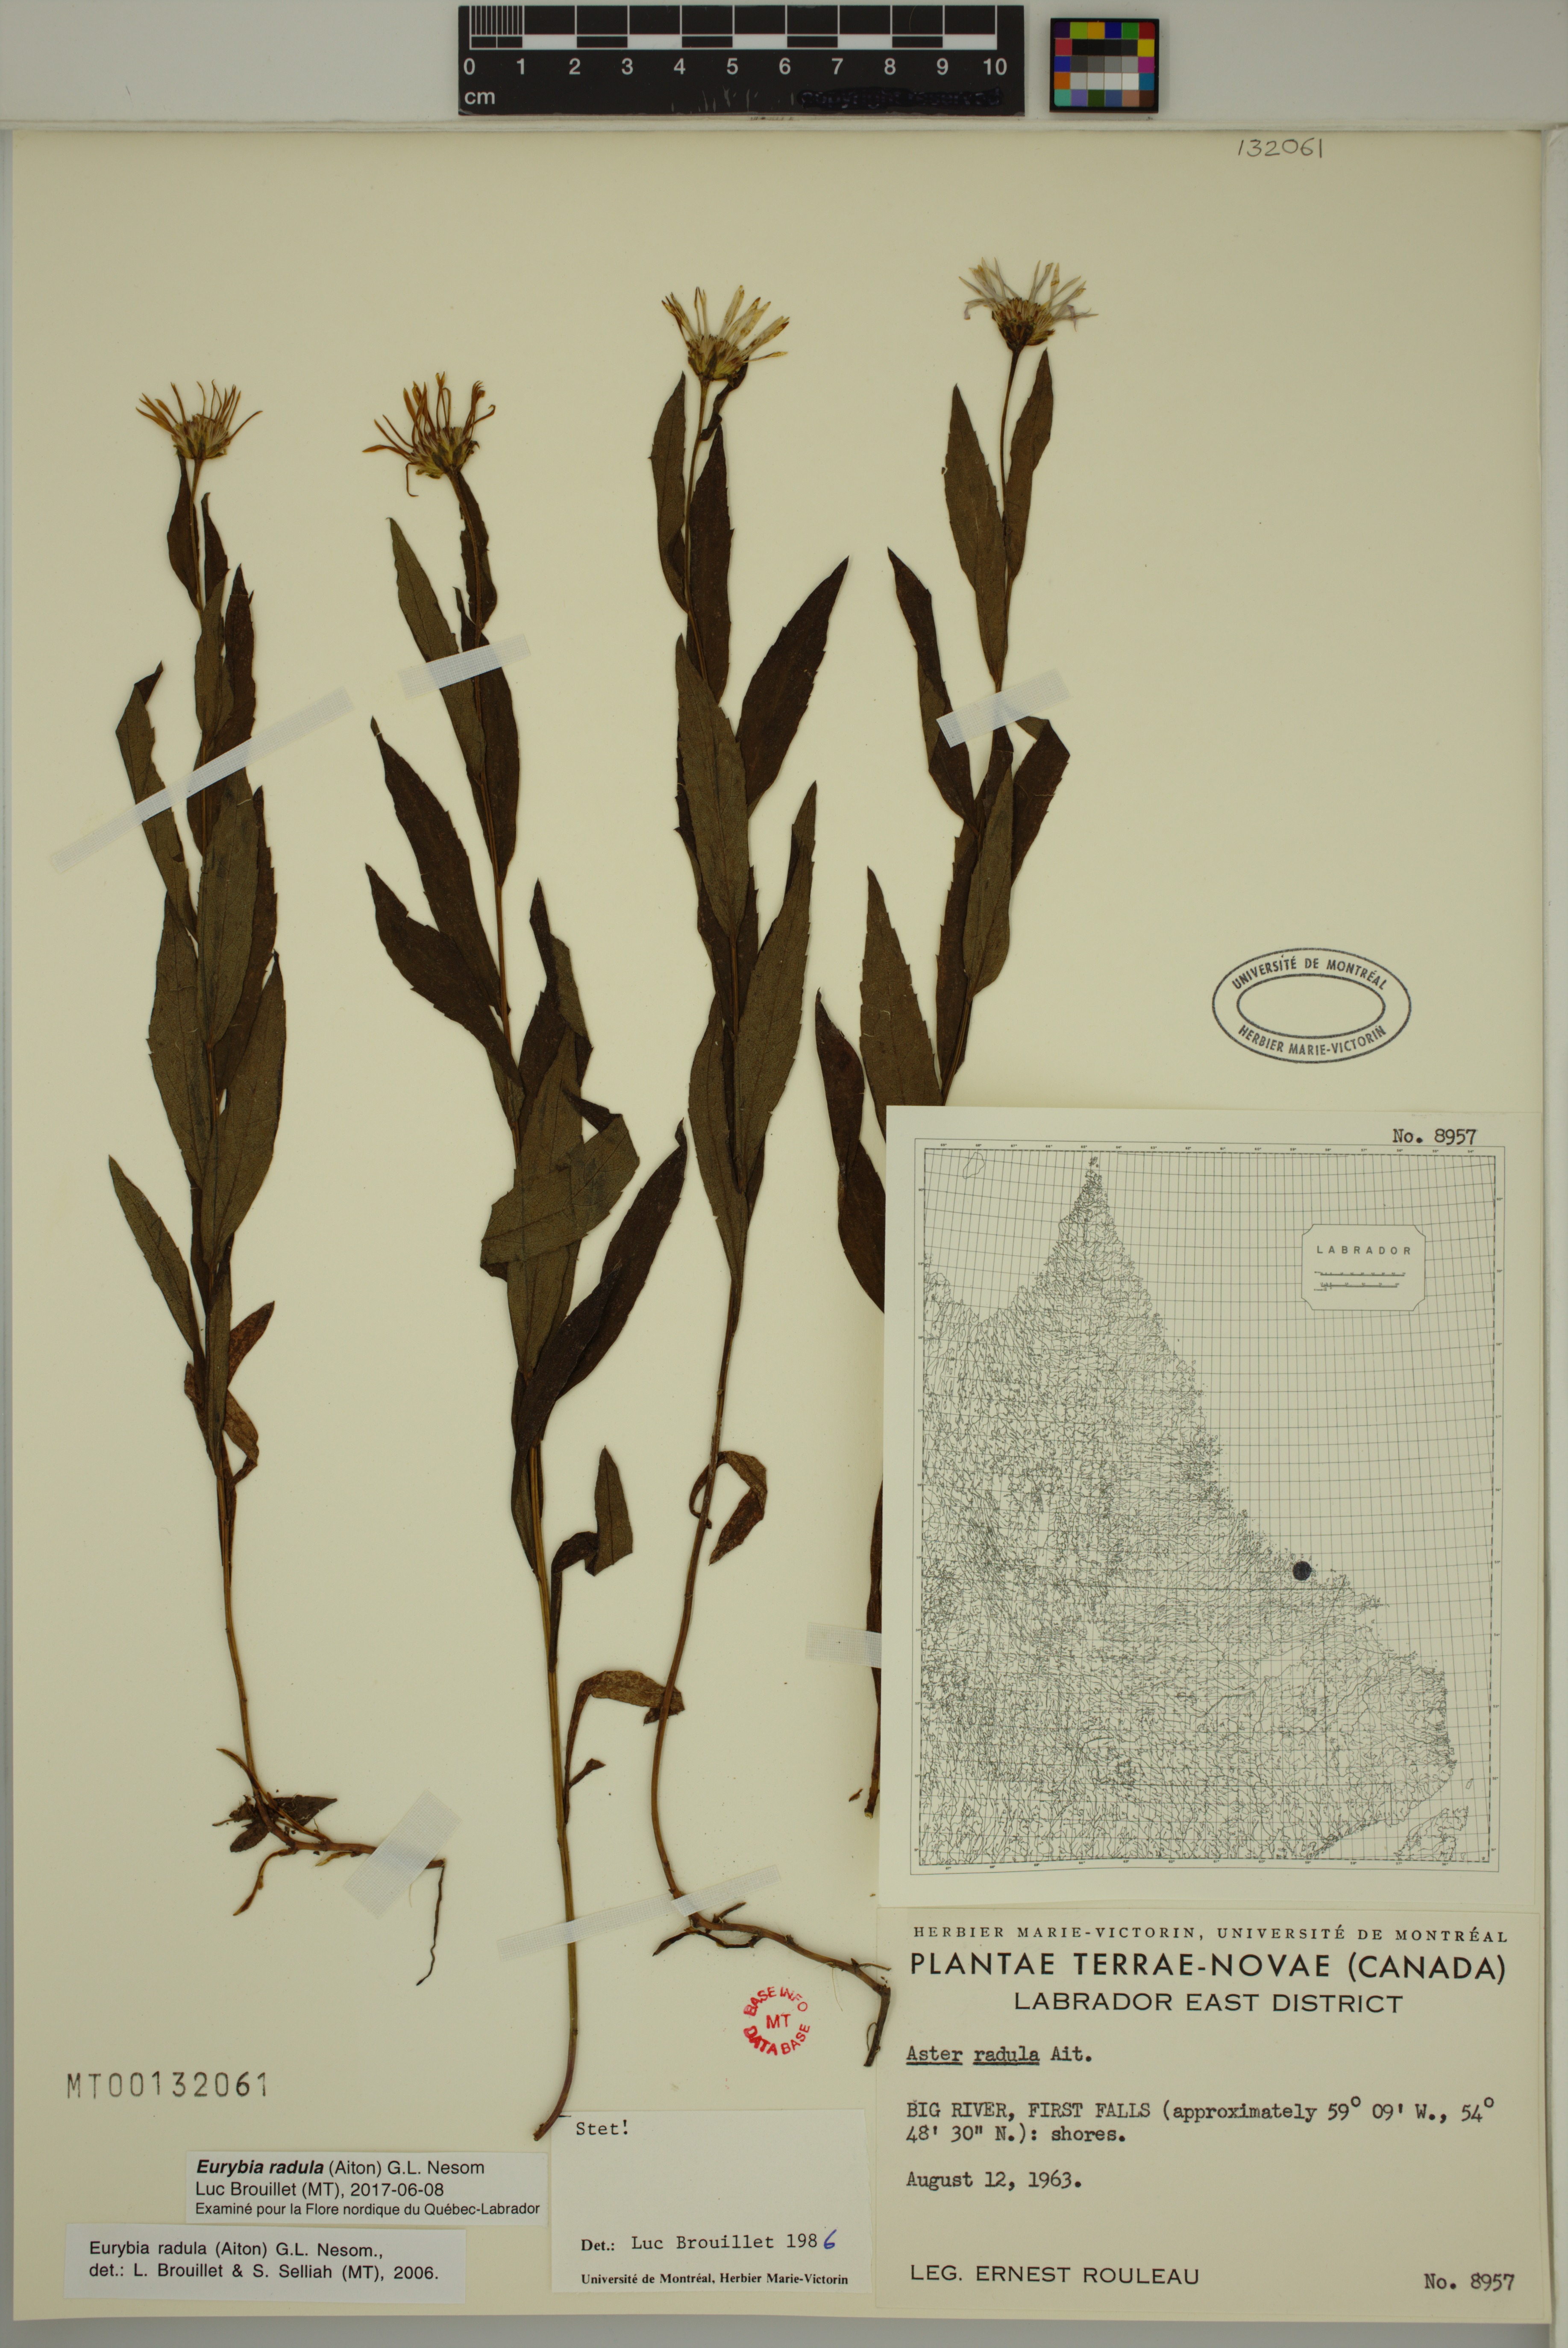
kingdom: Plantae
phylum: Tracheophyta
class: Magnoliopsida
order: Asterales
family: Asteraceae
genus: Eurybia
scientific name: Eurybia radula
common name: Low rough aster
